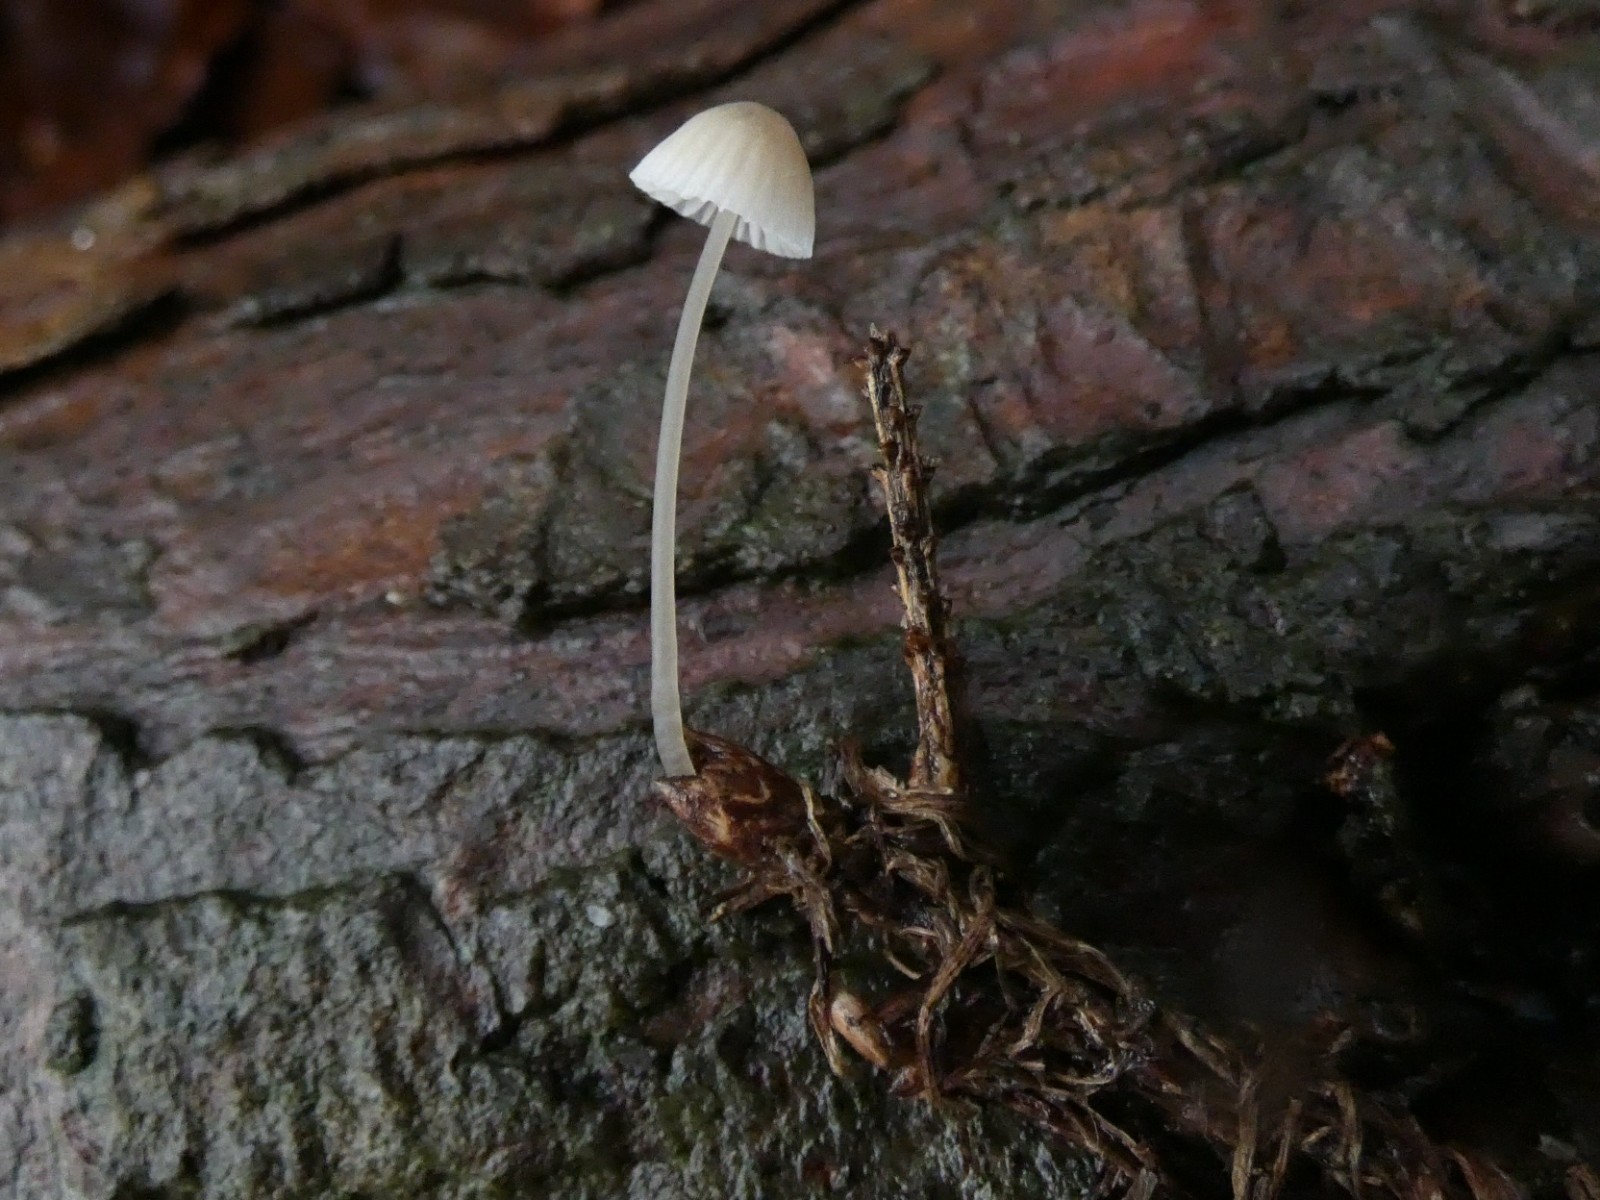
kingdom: Fungi
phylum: Basidiomycota
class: Agaricomycetes
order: Agaricales
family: Mycenaceae
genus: Mycena
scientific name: Mycena filopes
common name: jod-huesvamp
